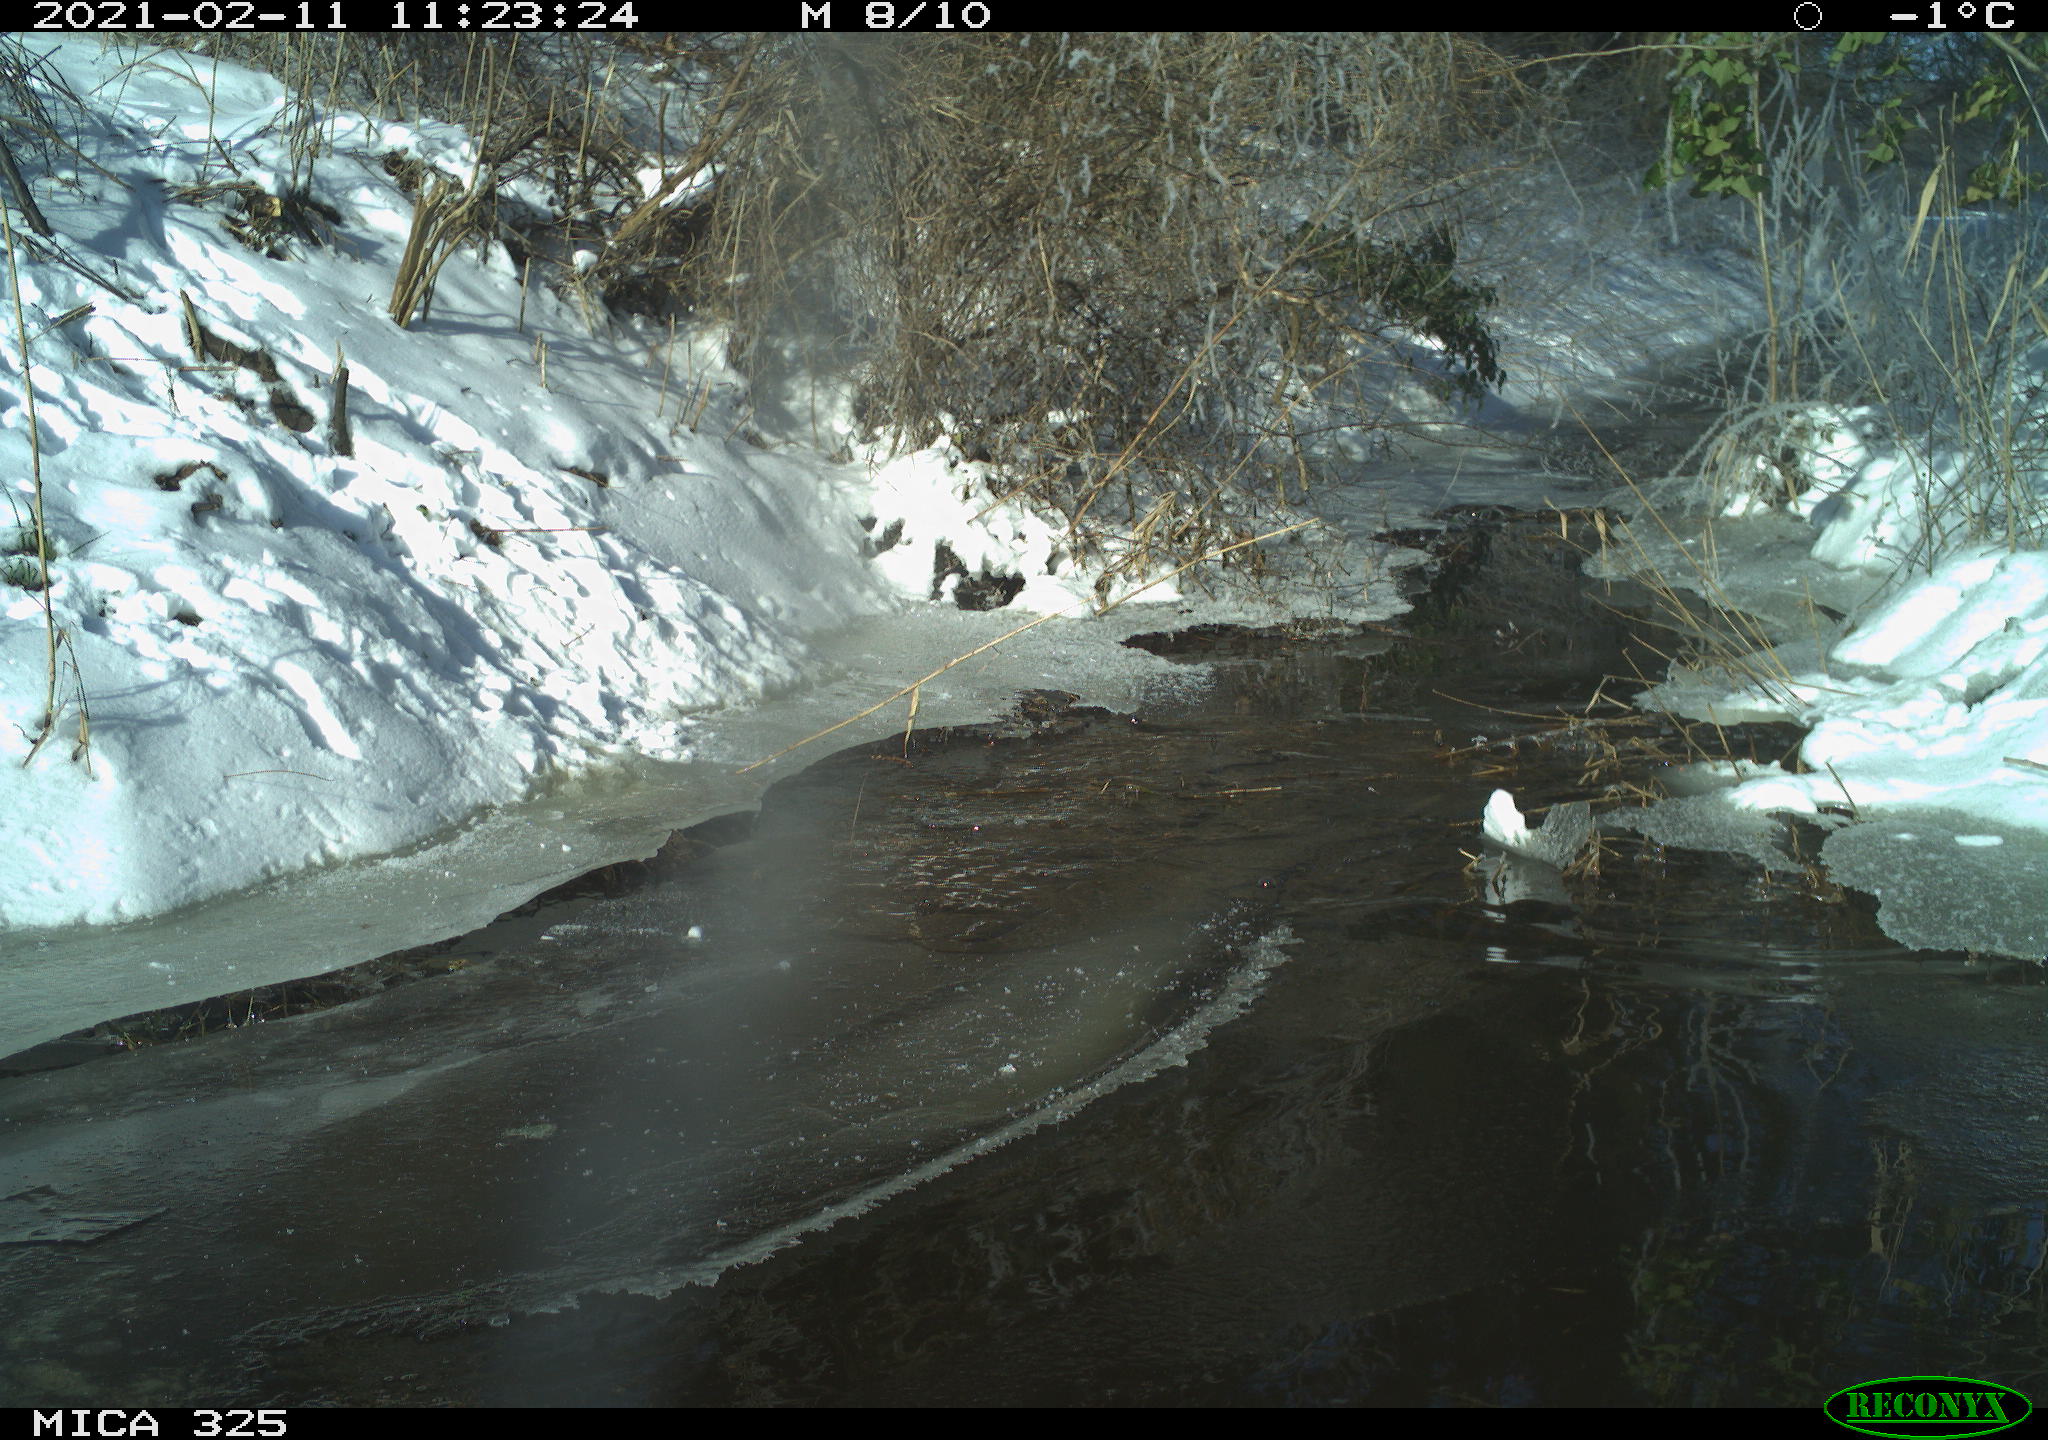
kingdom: Animalia
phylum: Chordata
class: Mammalia
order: Lagomorpha
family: Leporidae
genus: Lepus
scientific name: Lepus europaeus
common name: European hare
